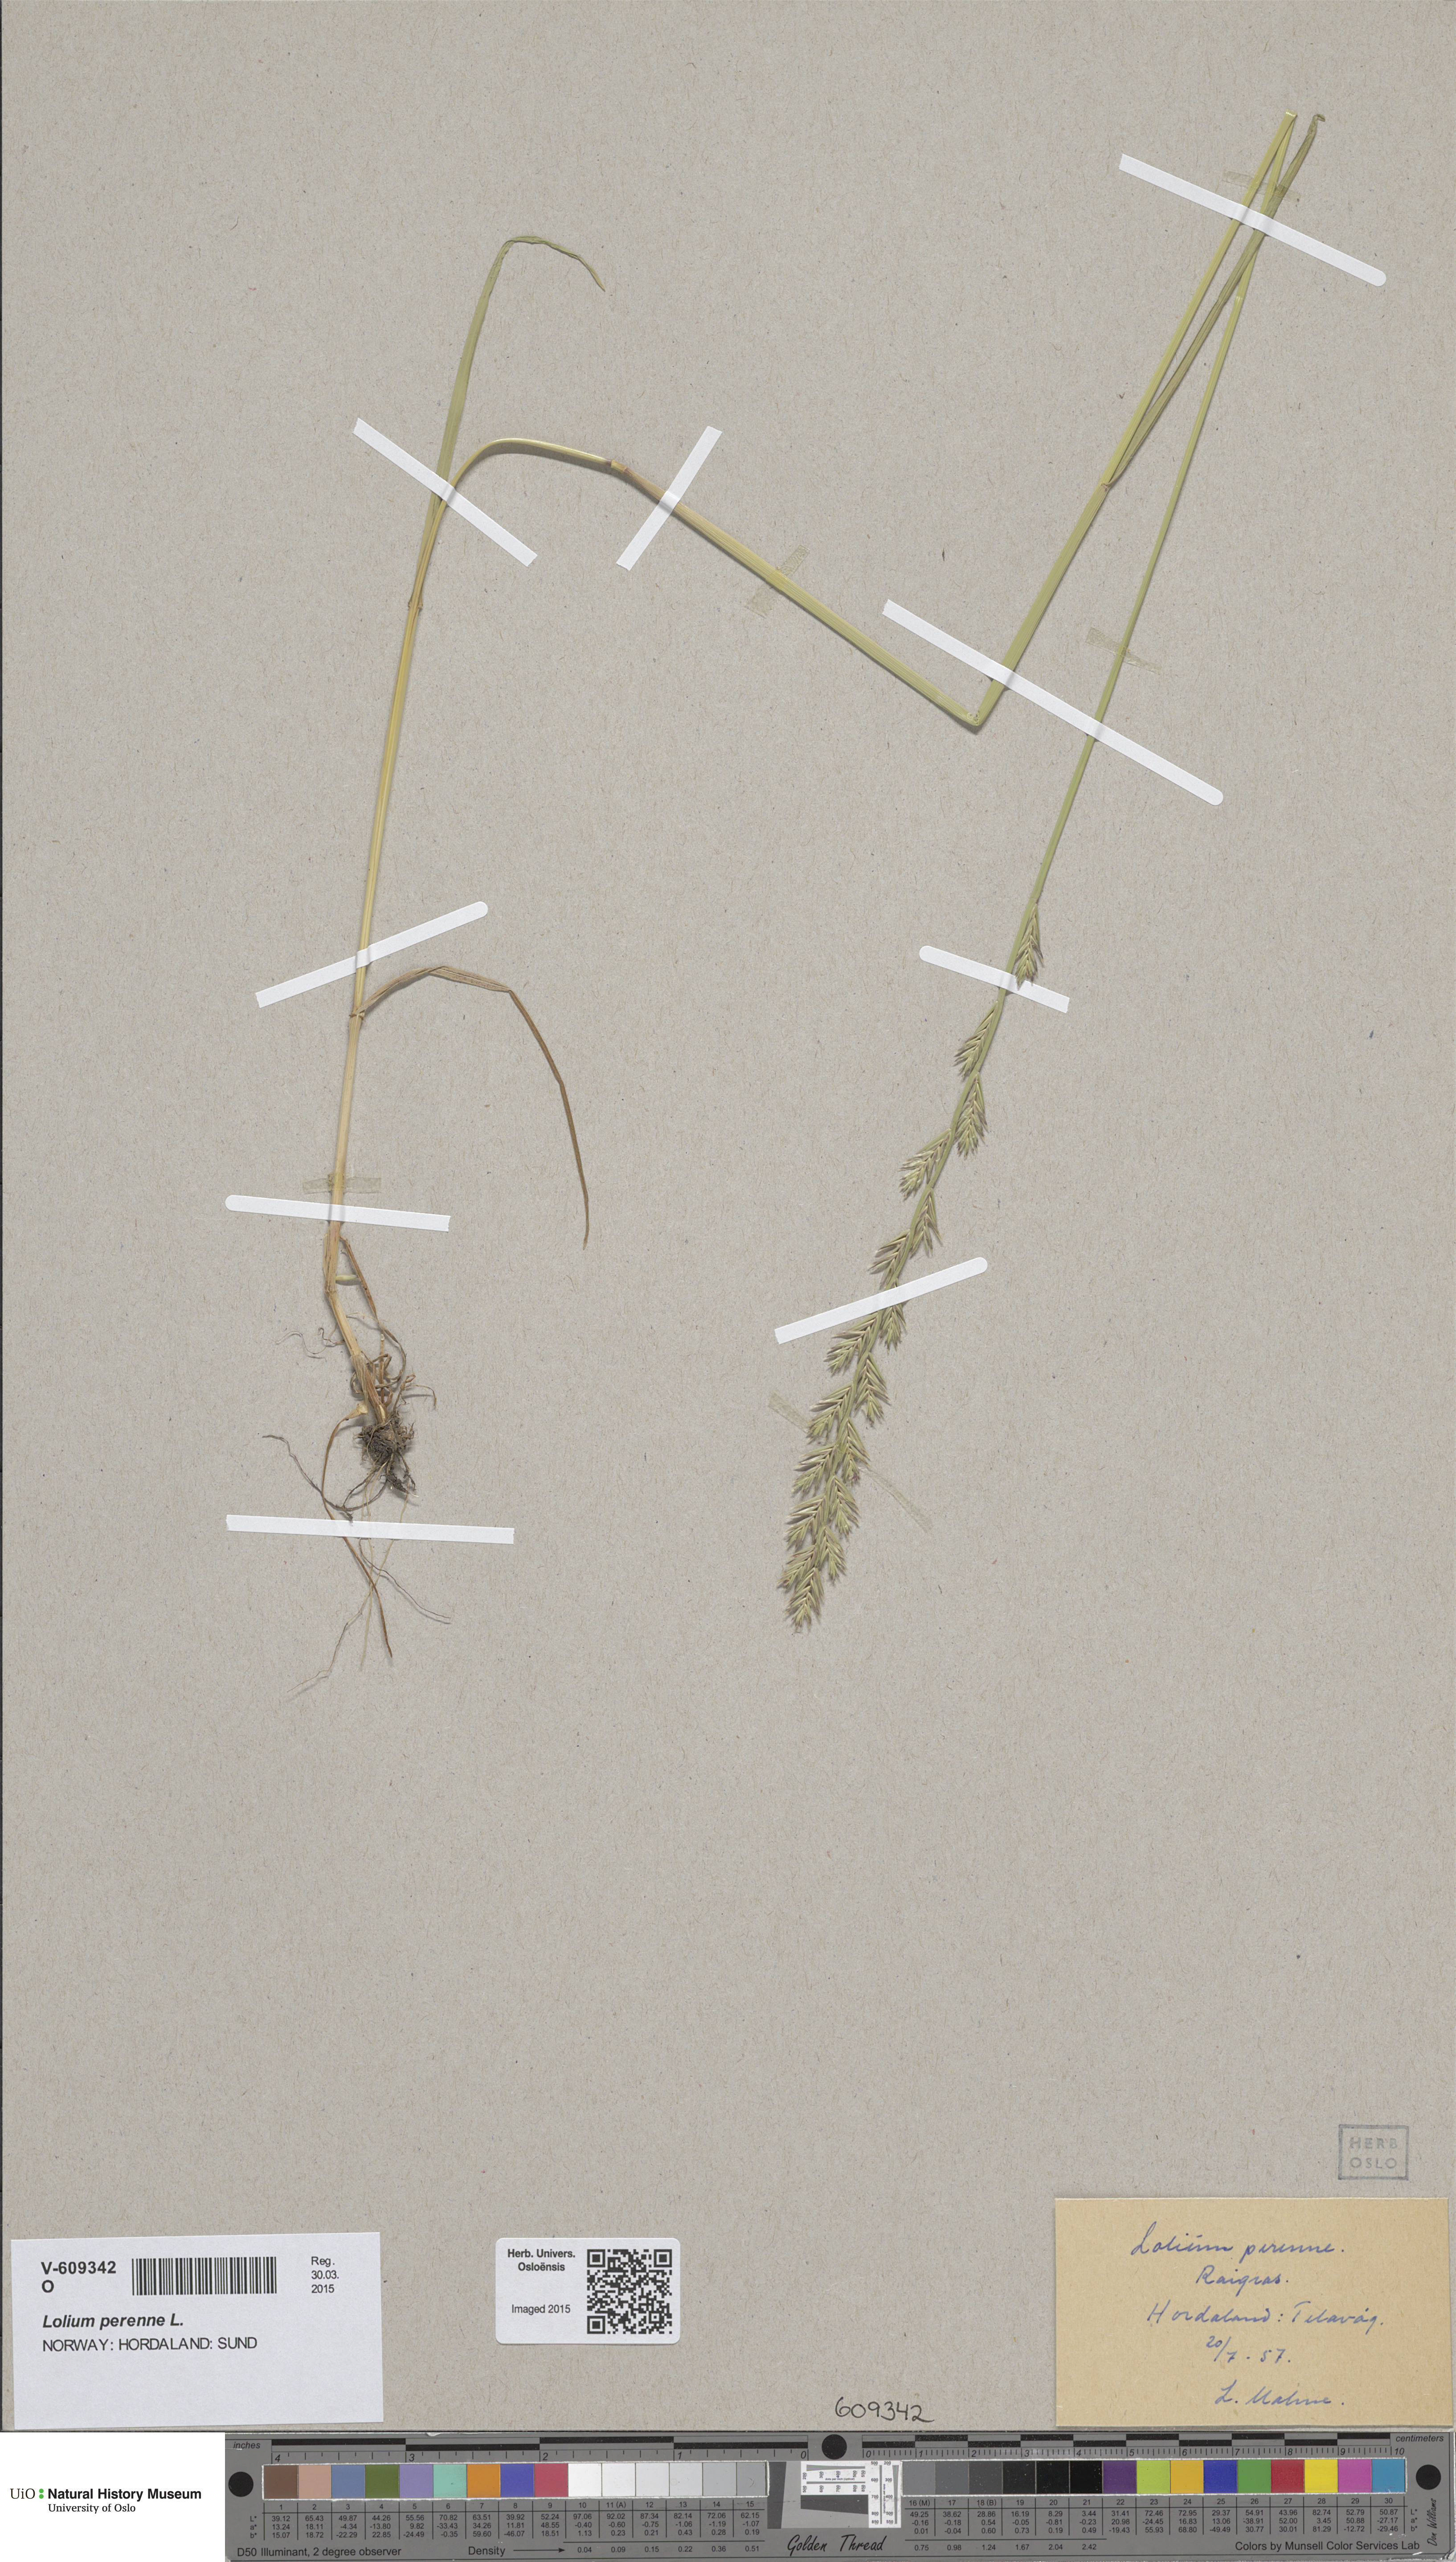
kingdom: Plantae
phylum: Tracheophyta
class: Liliopsida
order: Poales
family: Poaceae
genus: Lolium
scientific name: Lolium perenne
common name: Perennial ryegrass
